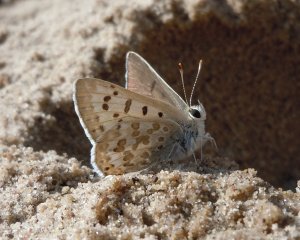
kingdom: Animalia
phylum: Arthropoda
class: Insecta
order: Lepidoptera
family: Lycaenidae
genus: Lycaena
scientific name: Lycaena editha
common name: Edith's Copper
